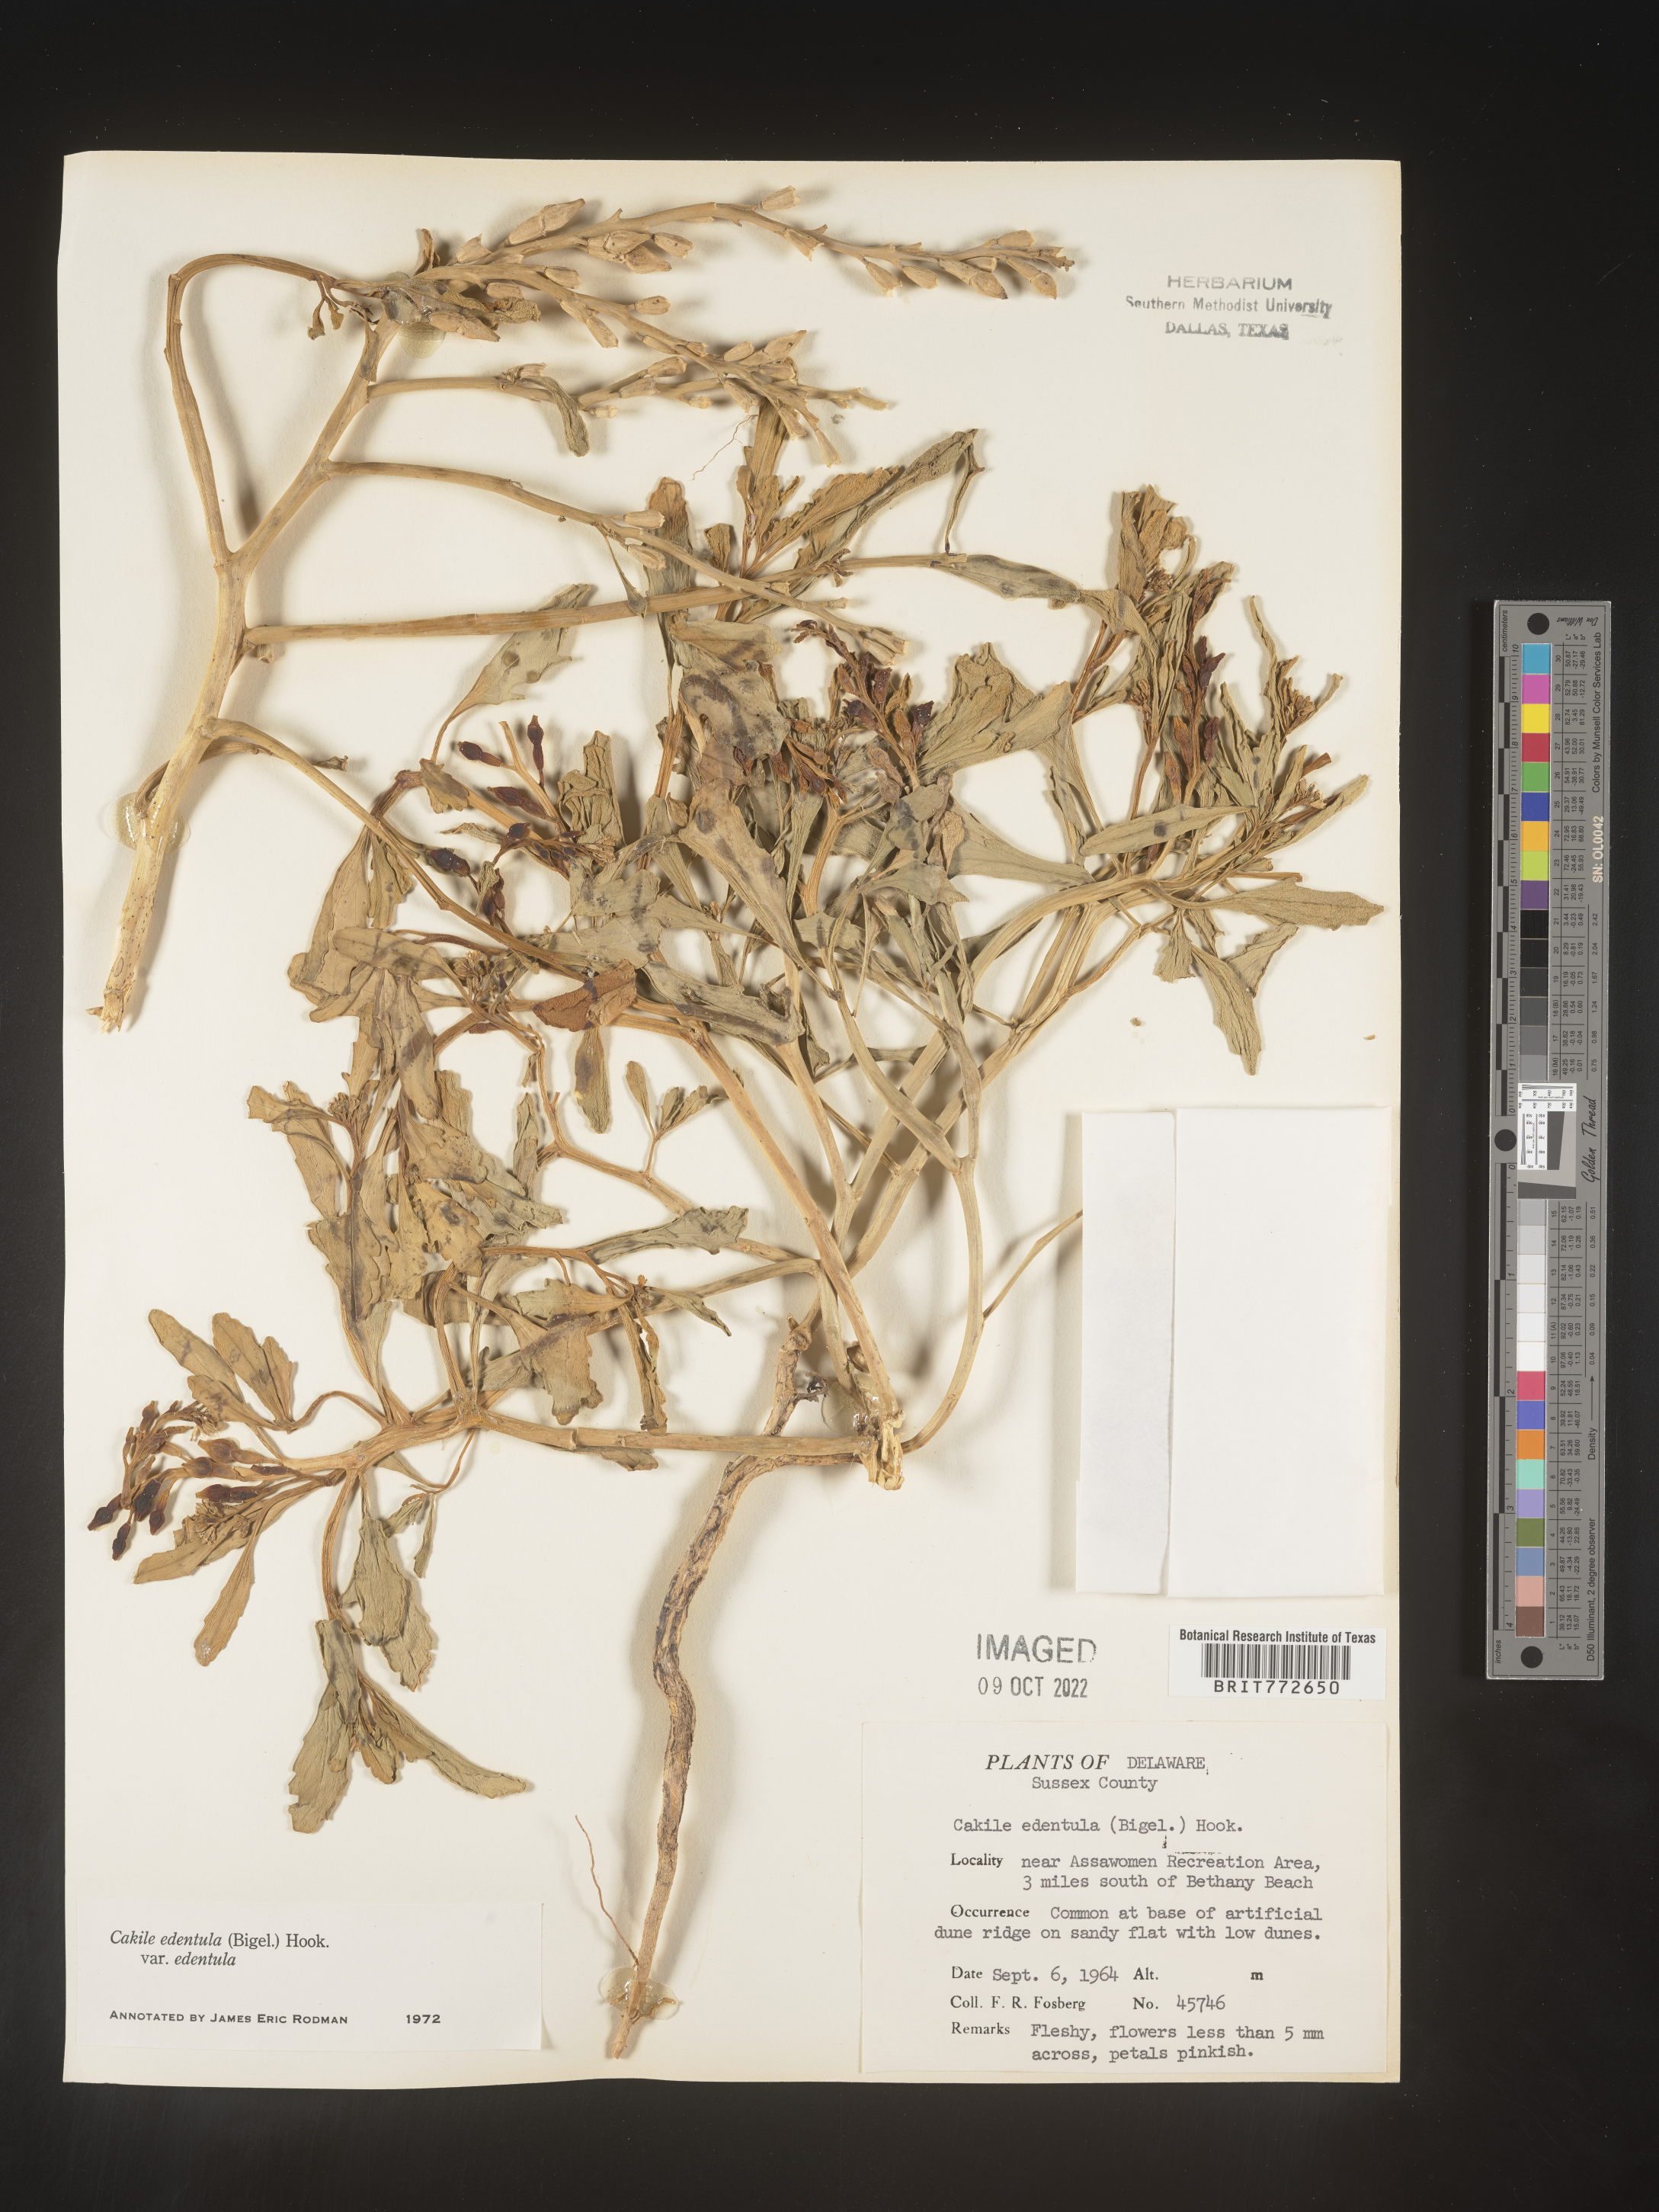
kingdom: Plantae
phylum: Tracheophyta
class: Magnoliopsida
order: Brassicales
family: Brassicaceae
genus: Cakile
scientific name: Cakile edentula
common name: American sea rocket
